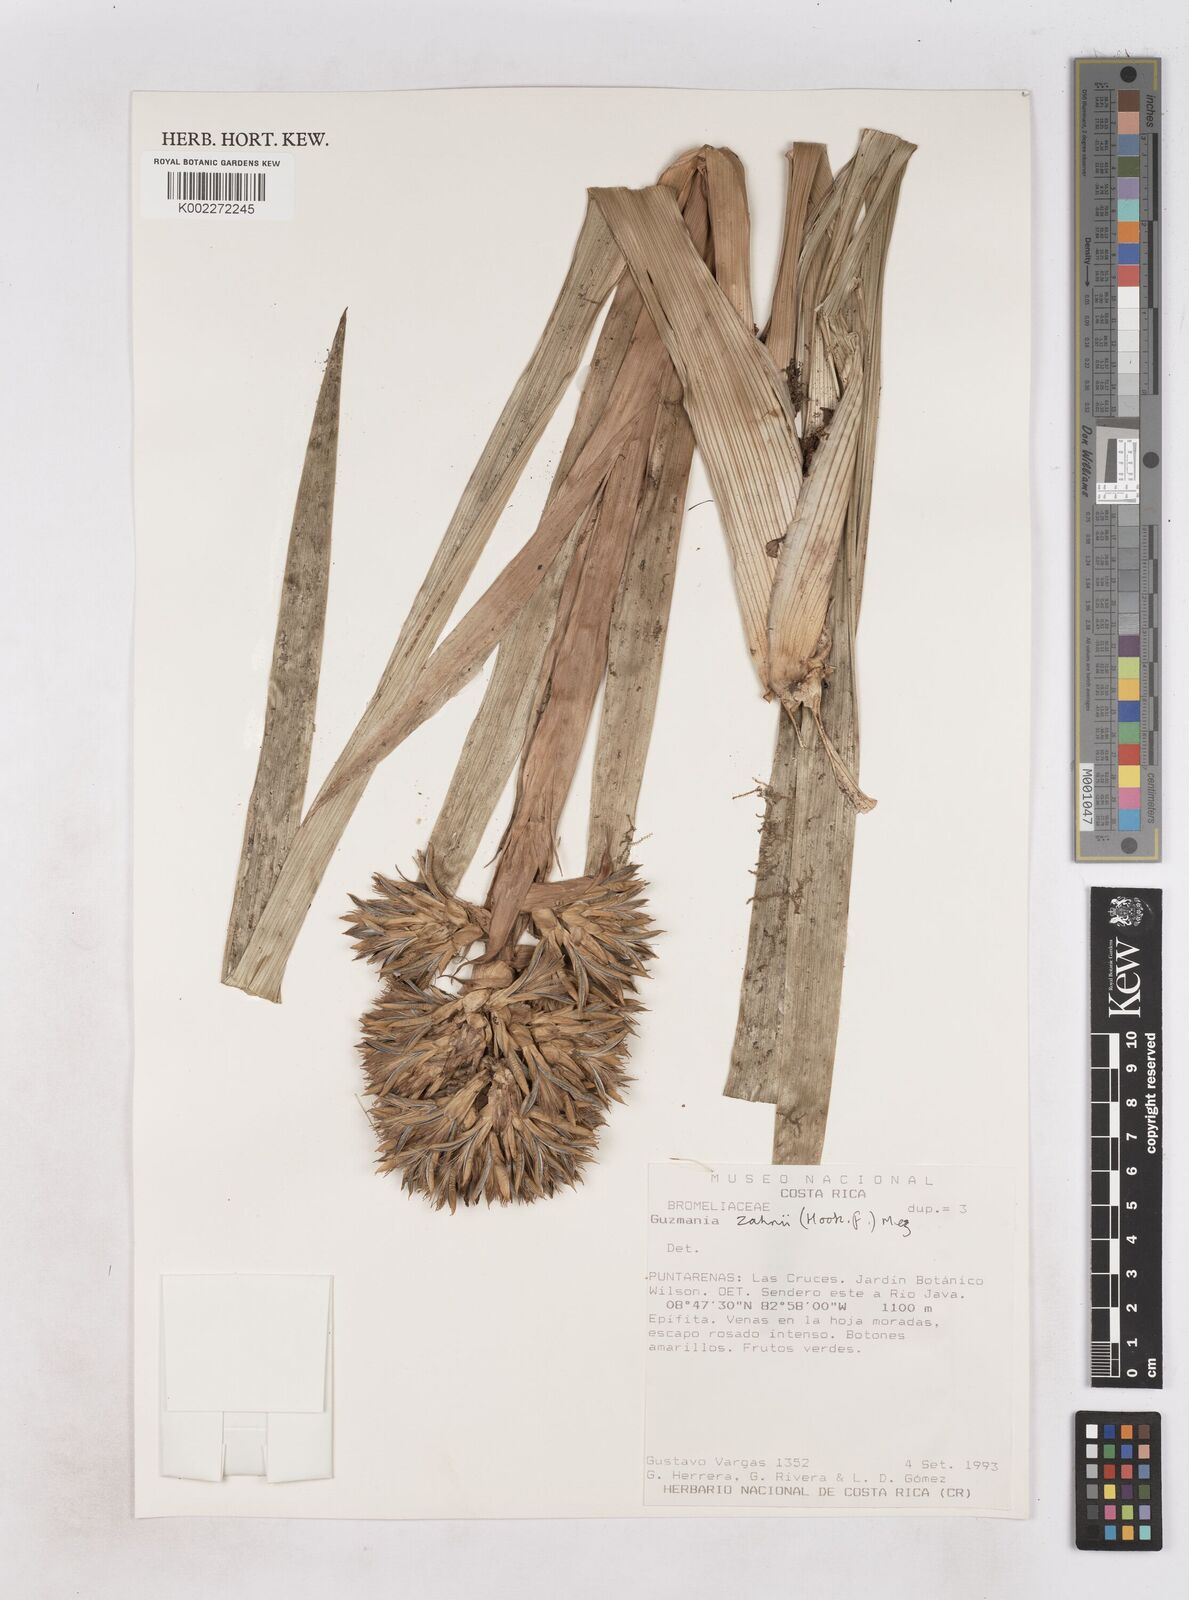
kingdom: Plantae
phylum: Tracheophyta
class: Liliopsida
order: Poales
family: Bromeliaceae
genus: Guzmania
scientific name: Guzmania zahnii
